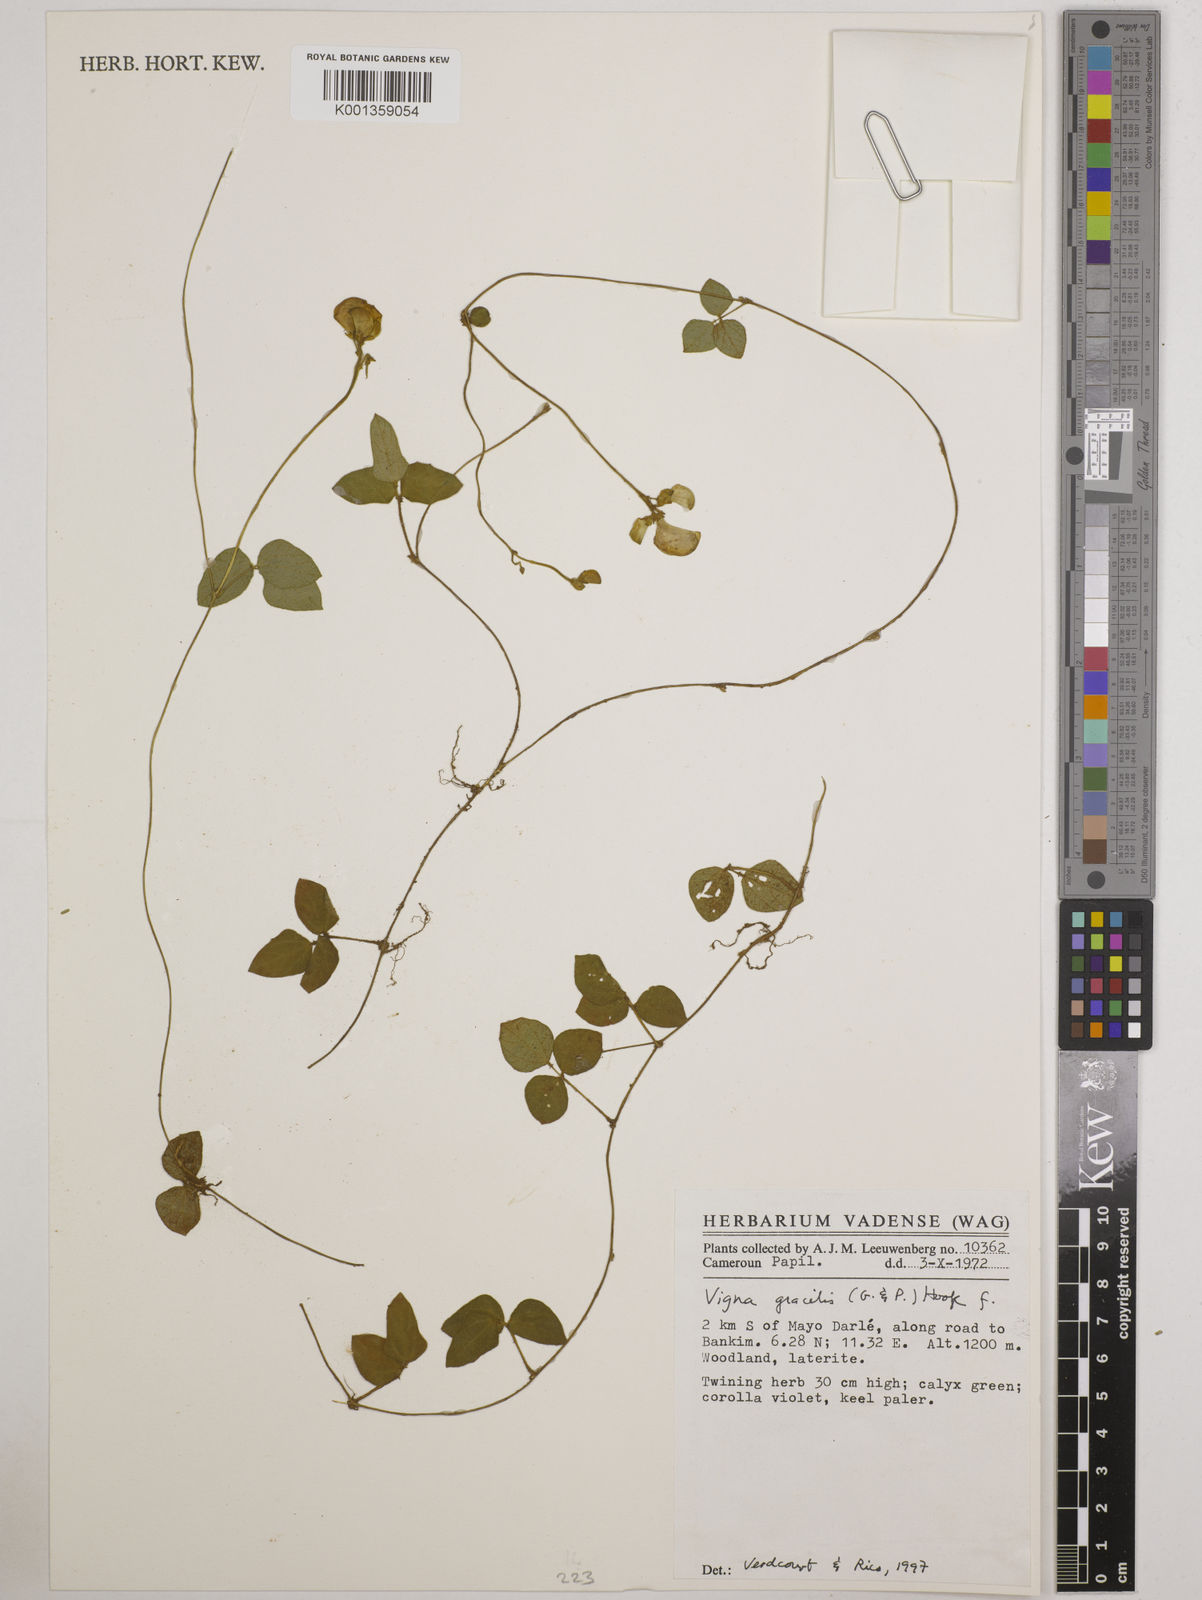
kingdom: Plantae
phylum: Tracheophyta
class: Magnoliopsida
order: Fabales
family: Fabaceae
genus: Vigna
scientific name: Vigna gracilis
